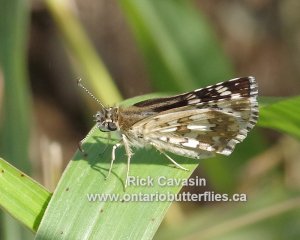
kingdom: Animalia
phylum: Arthropoda
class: Insecta
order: Lepidoptera
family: Hesperiidae
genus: Pyrgus
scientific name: Pyrgus communis
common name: White Checkered-Skipper
